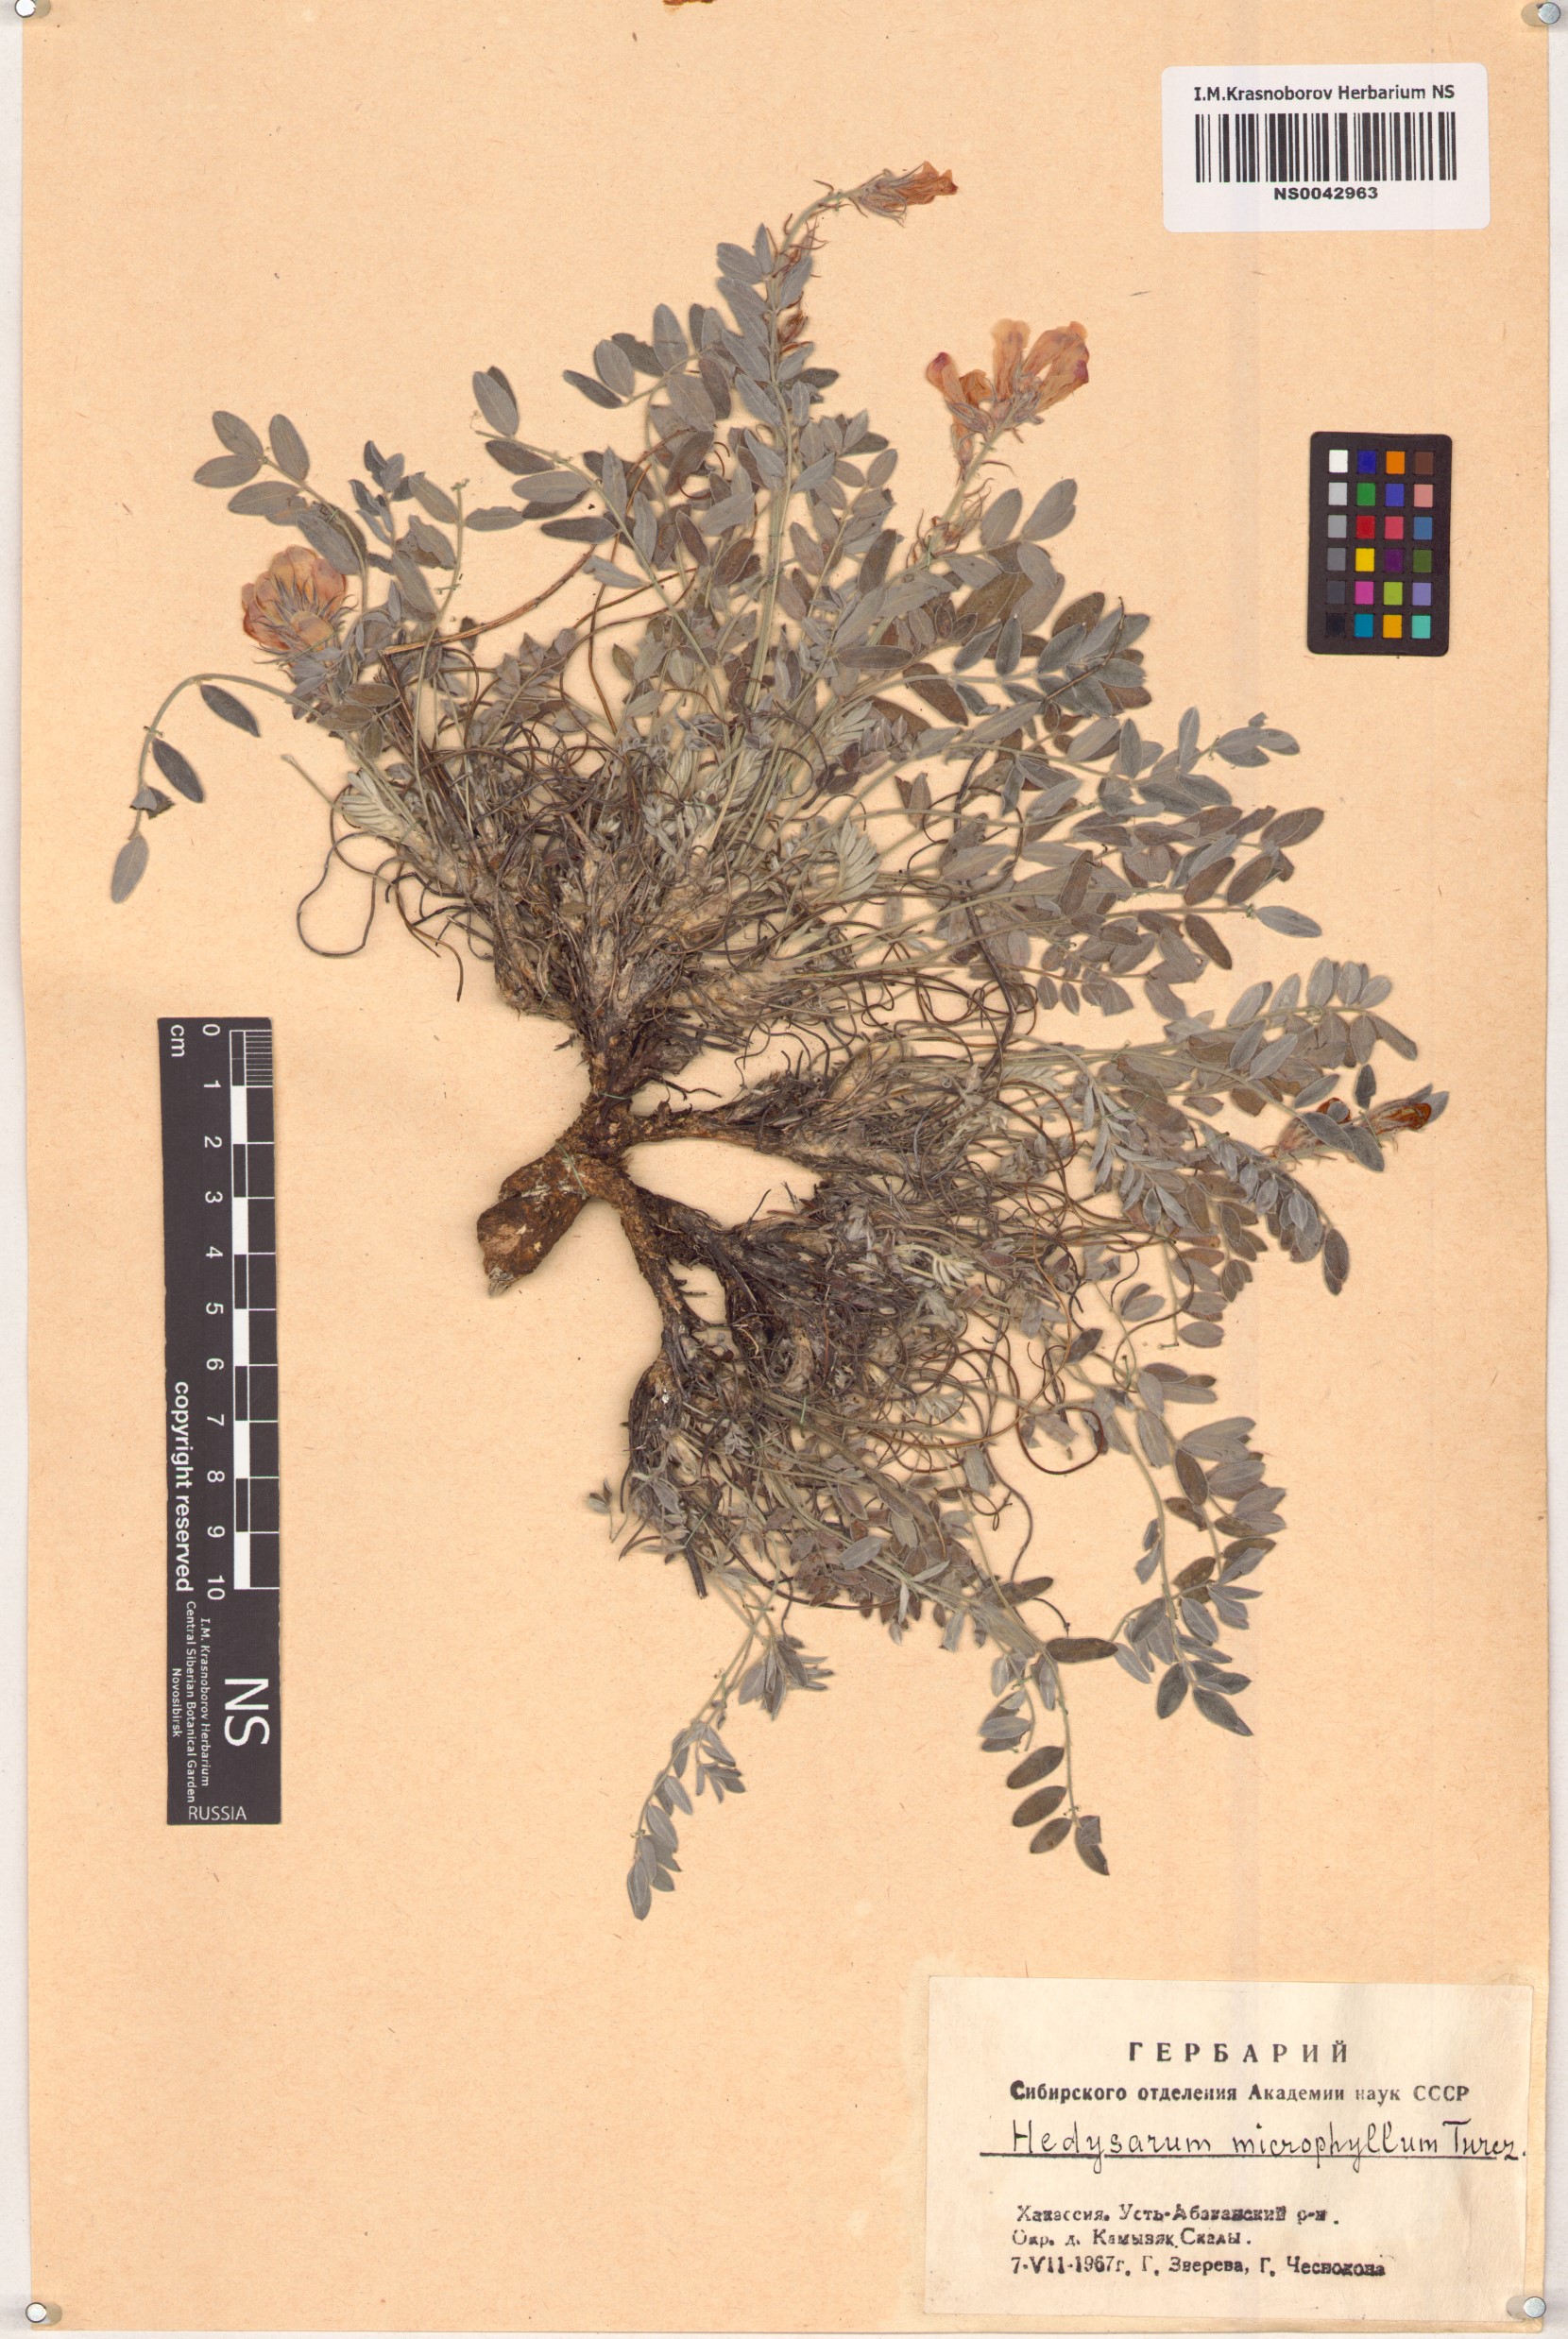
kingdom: Plantae
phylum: Tracheophyta
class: Magnoliopsida
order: Fabales
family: Fabaceae
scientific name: Fabaceae
